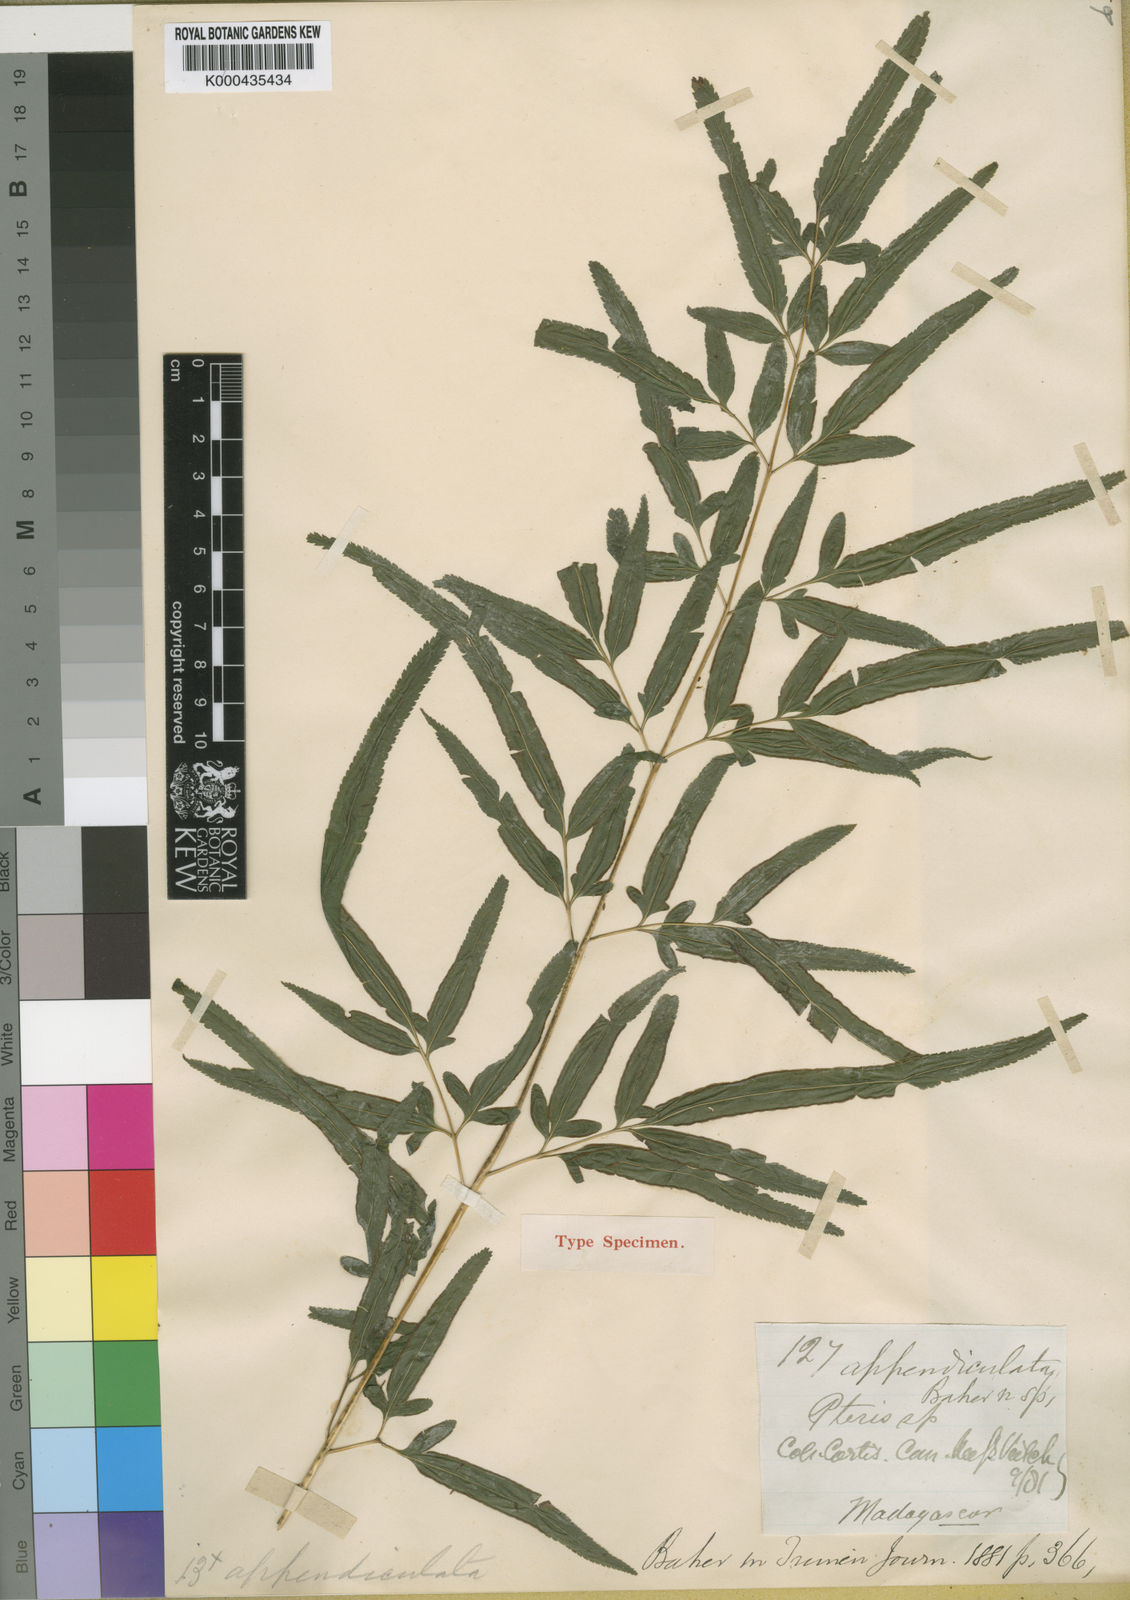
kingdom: Plantae
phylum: Tracheophyta
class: Polypodiopsida
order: Polypodiales
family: Pteridaceae
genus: Pteris
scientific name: Pteris laurea
